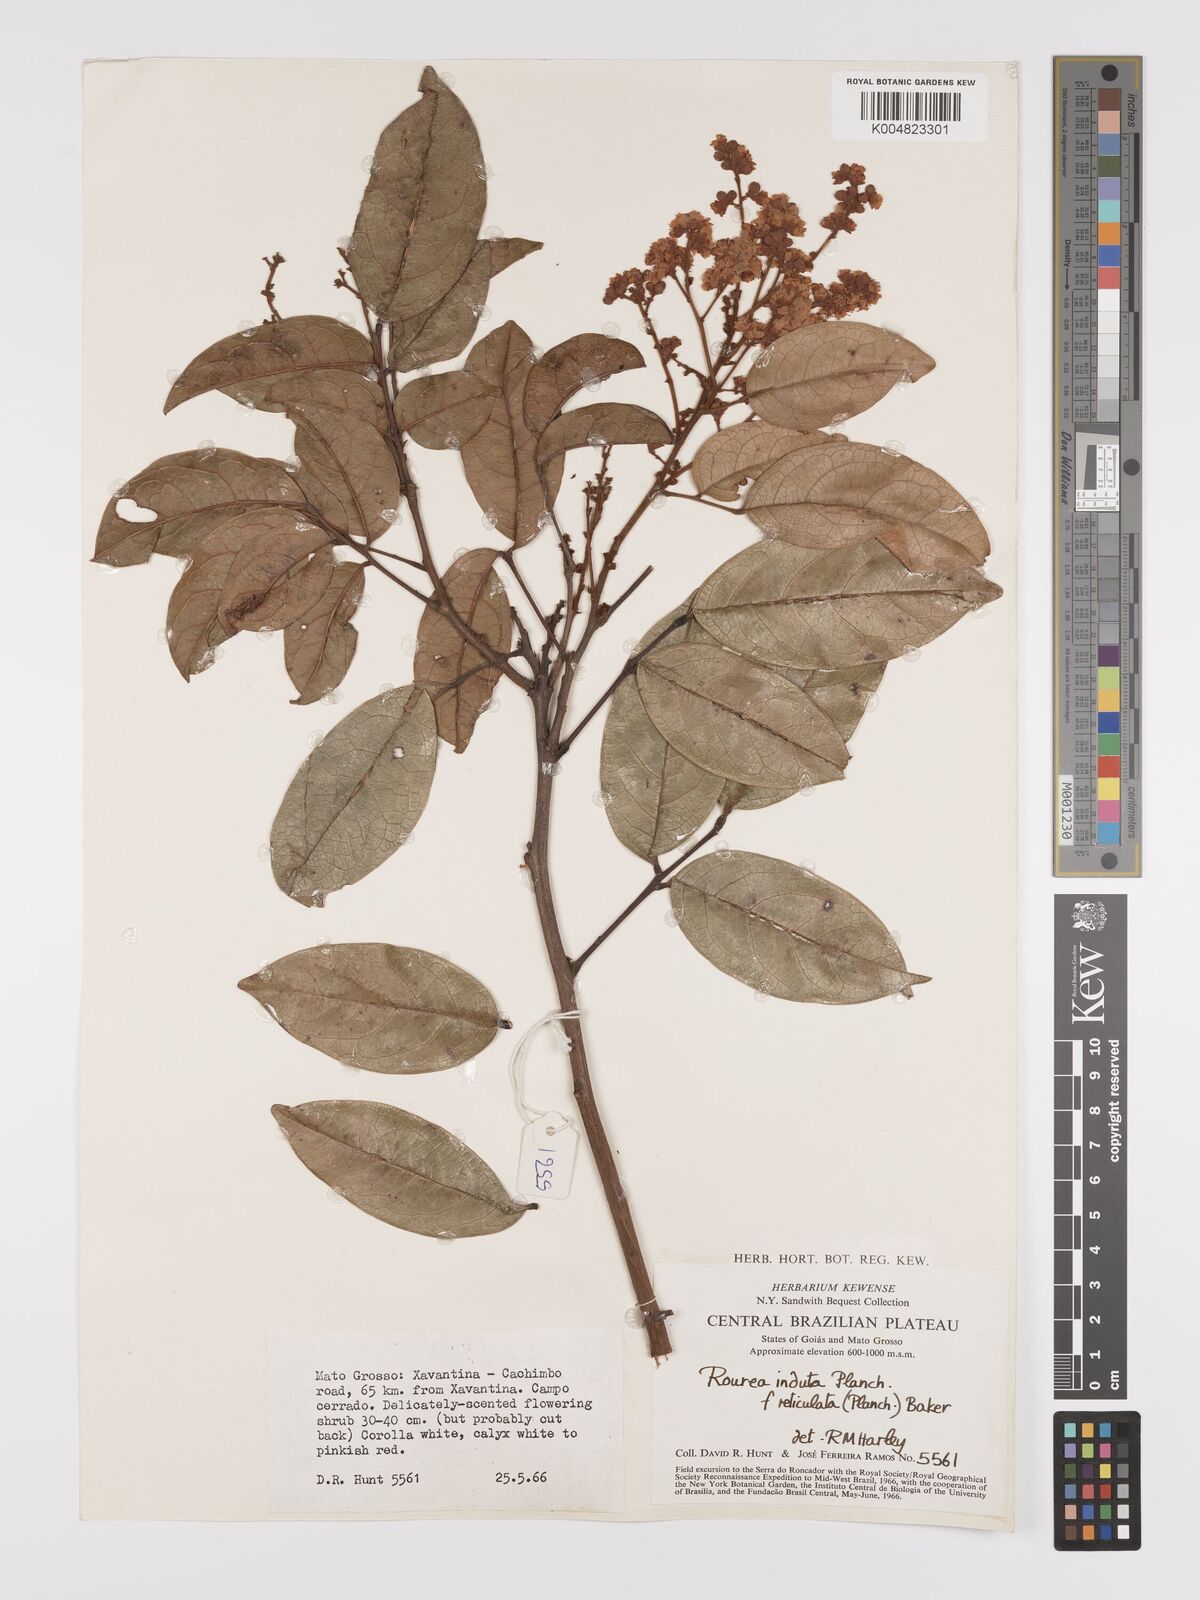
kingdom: Plantae
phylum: Tracheophyta
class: Magnoliopsida
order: Oxalidales
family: Connaraceae
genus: Rourea
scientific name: Rourea induta
